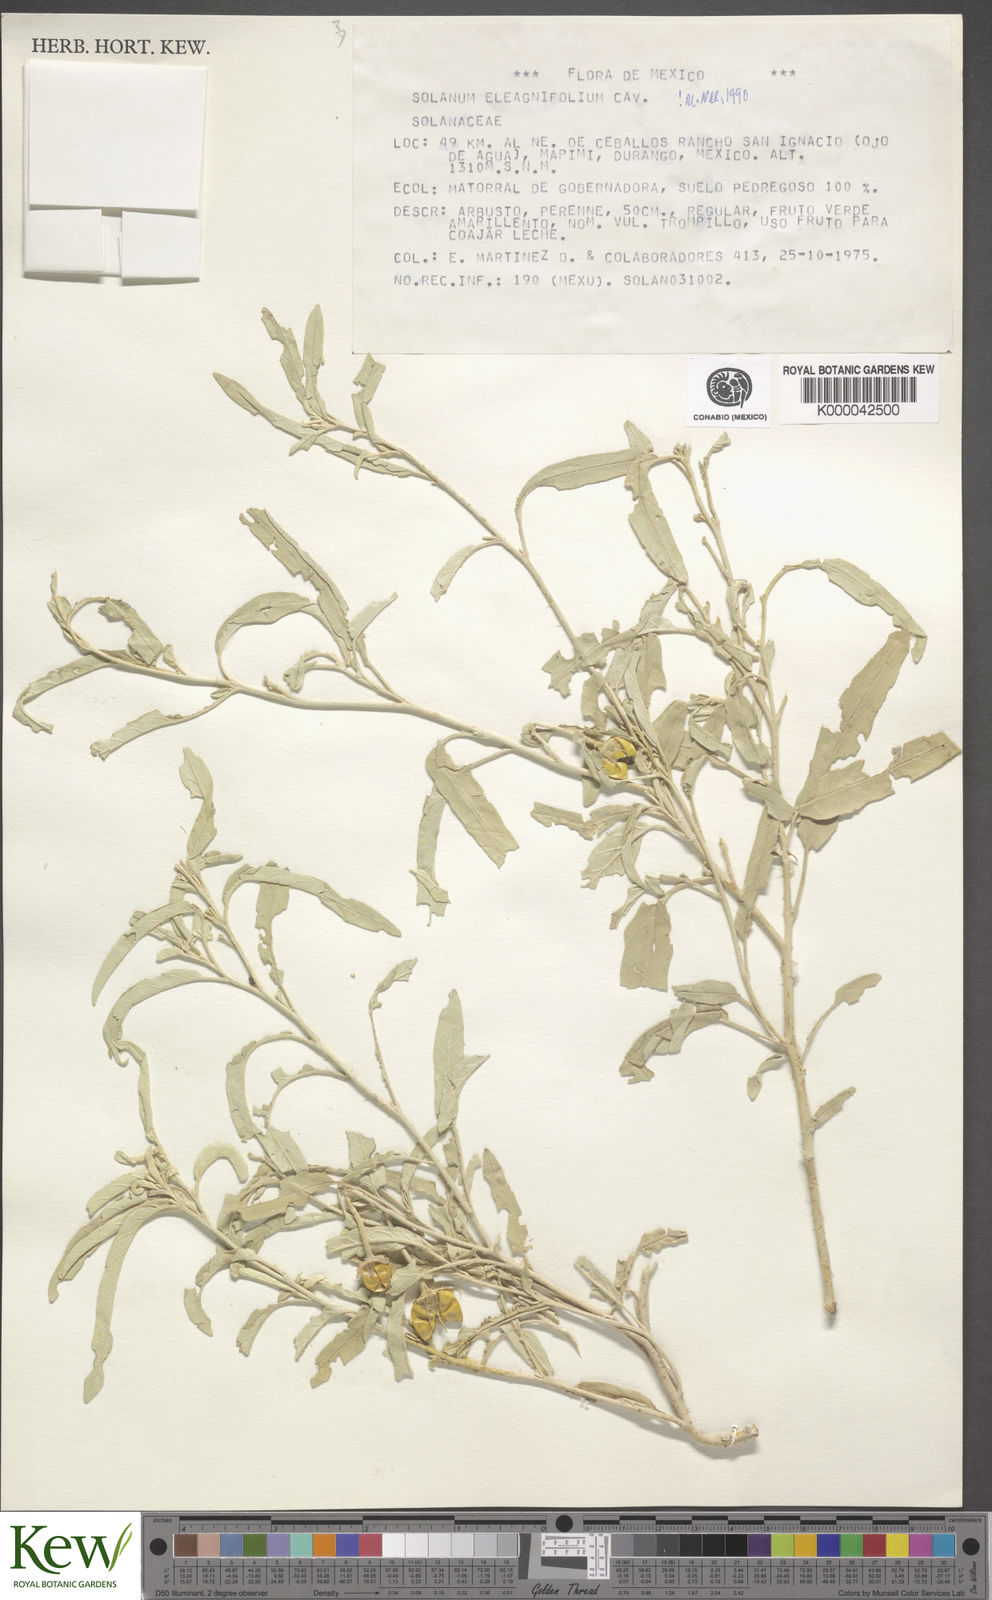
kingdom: Plantae
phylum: Tracheophyta
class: Magnoliopsida
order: Solanales
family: Solanaceae
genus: Solanum
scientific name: Solanum elaeagnifolium
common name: Silverleaf nightshade
